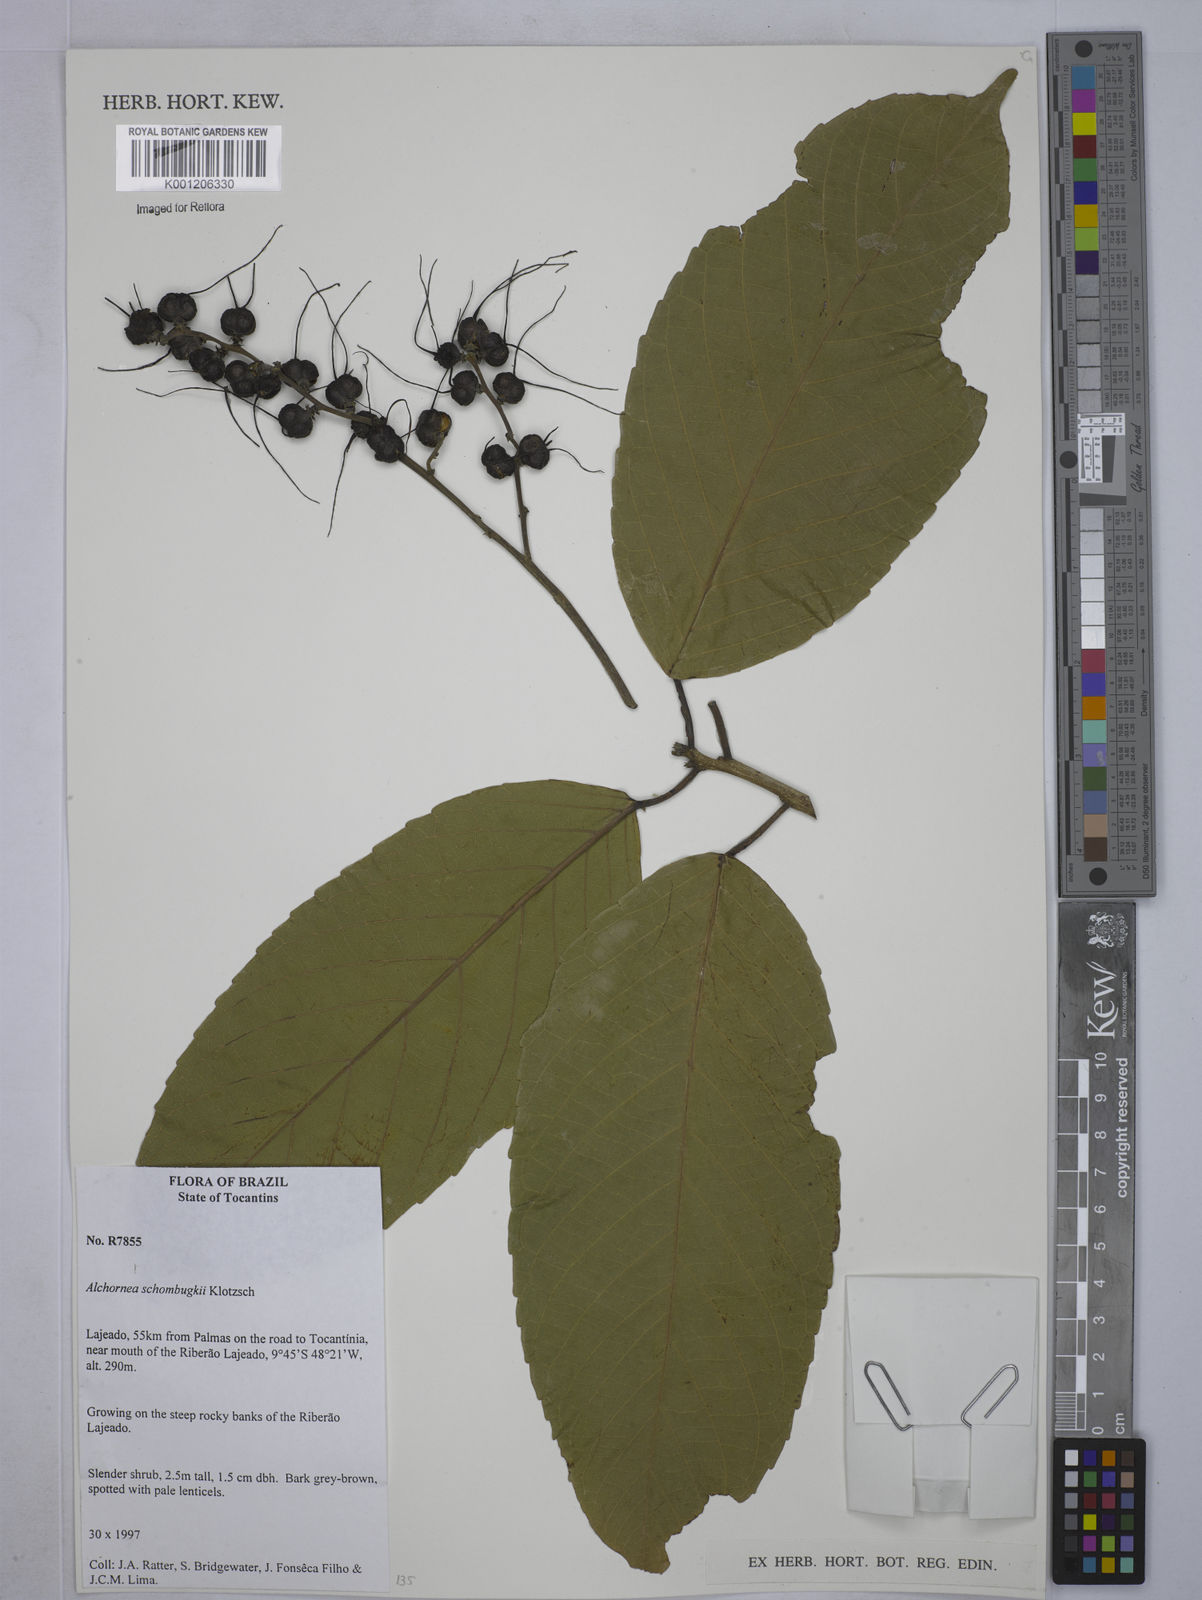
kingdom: Plantae
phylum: Tracheophyta
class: Magnoliopsida
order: Malpighiales
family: Euphorbiaceae
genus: Alchornea
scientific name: Alchornea discolor
